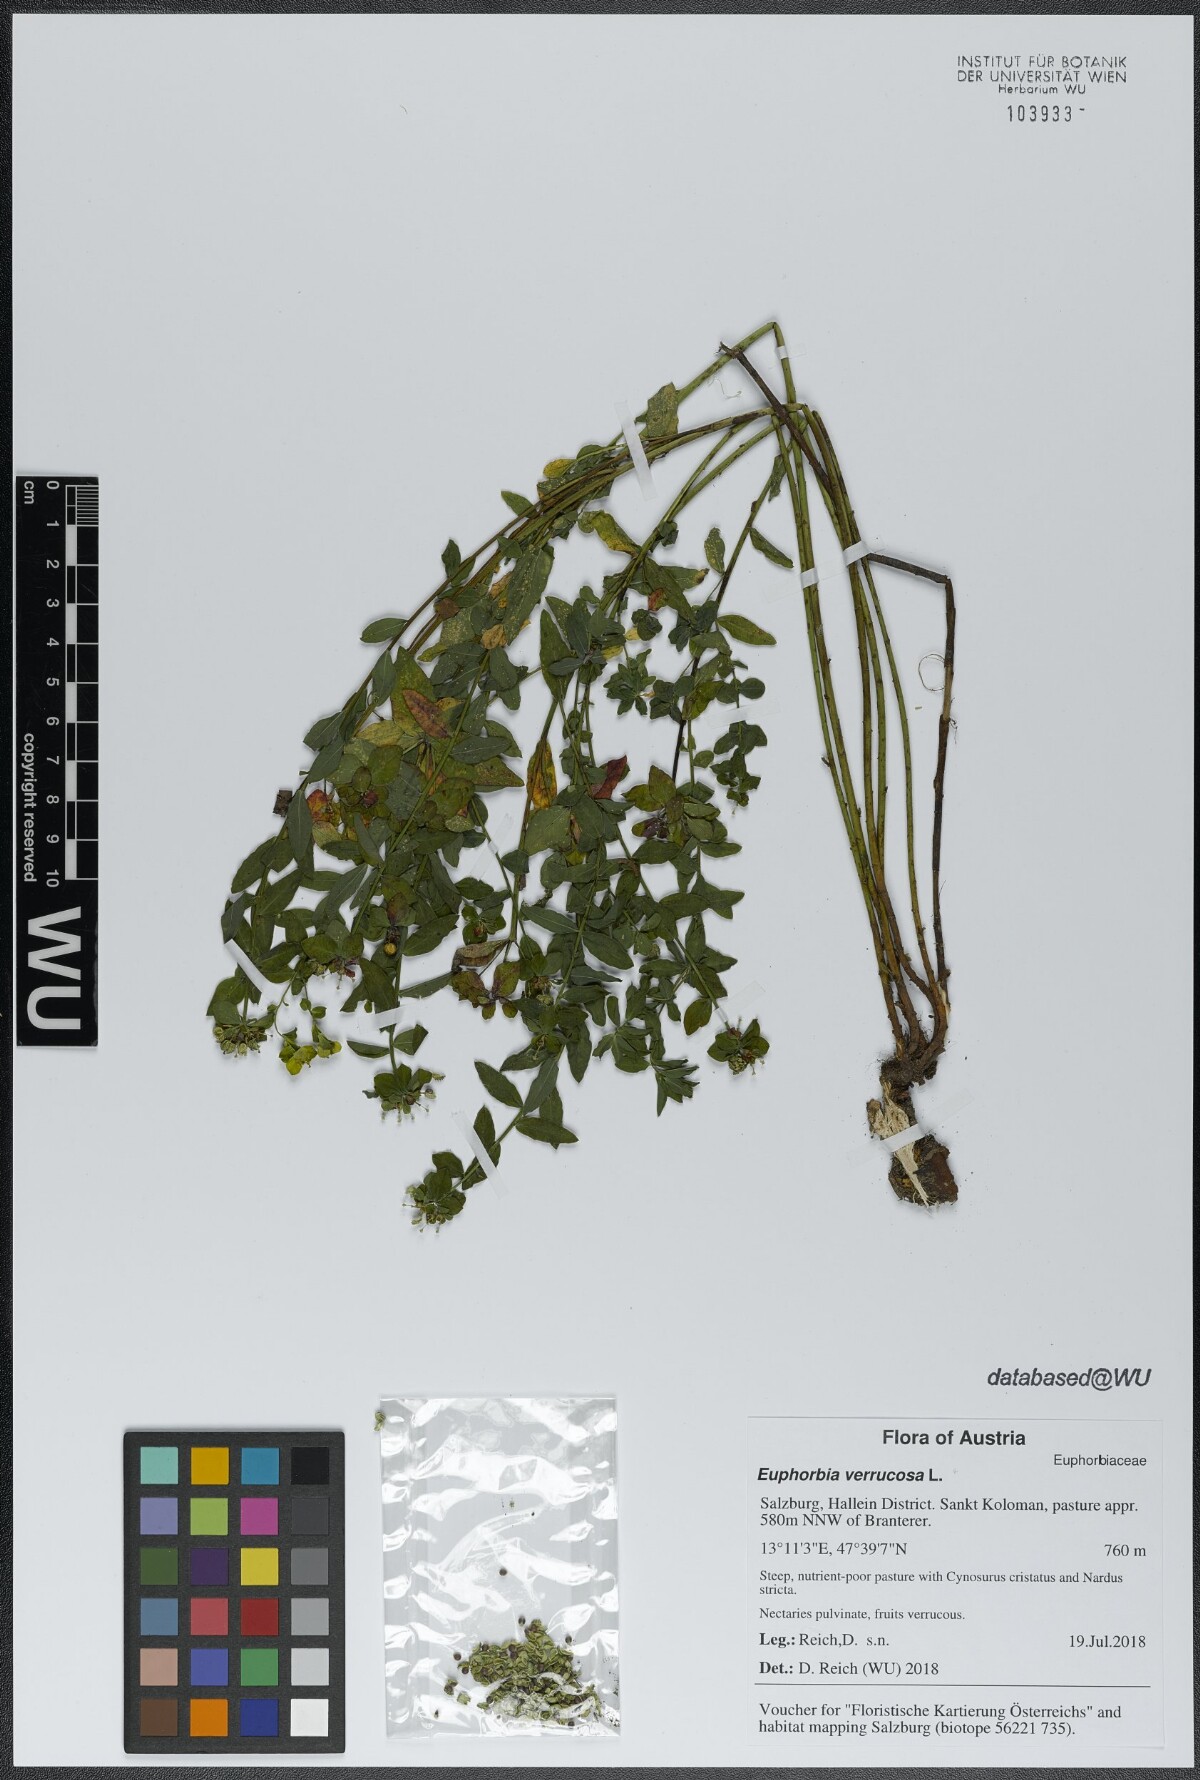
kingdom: Plantae
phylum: Tracheophyta
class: Magnoliopsida
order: Malpighiales
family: Euphorbiaceae
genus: Euphorbia
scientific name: Euphorbia verrucosa
